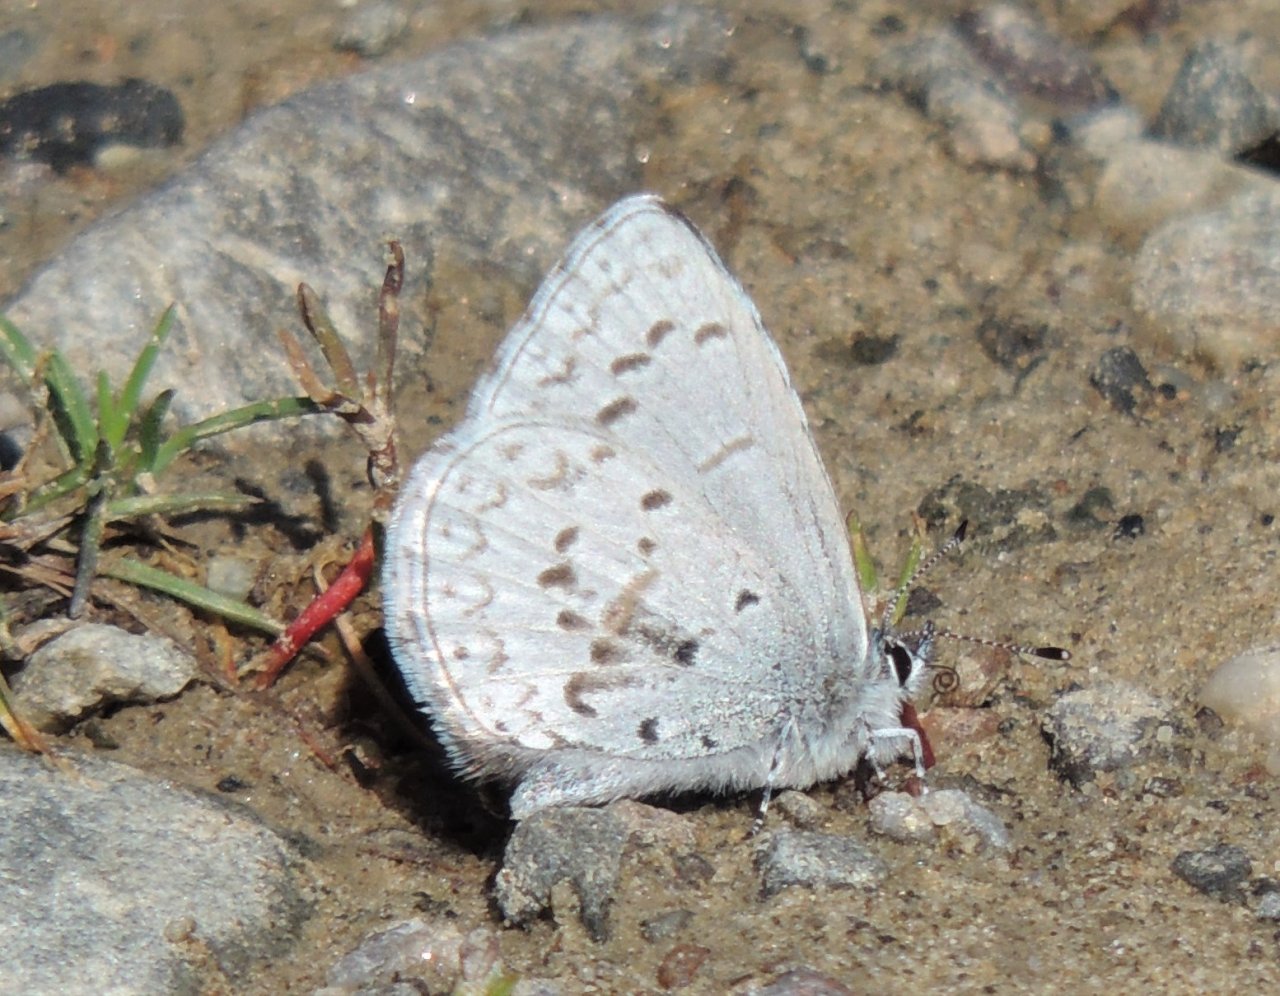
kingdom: Animalia
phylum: Arthropoda
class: Insecta
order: Lepidoptera
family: Lycaenidae
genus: Celastrina
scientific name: Celastrina ladon
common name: Echo Azure
